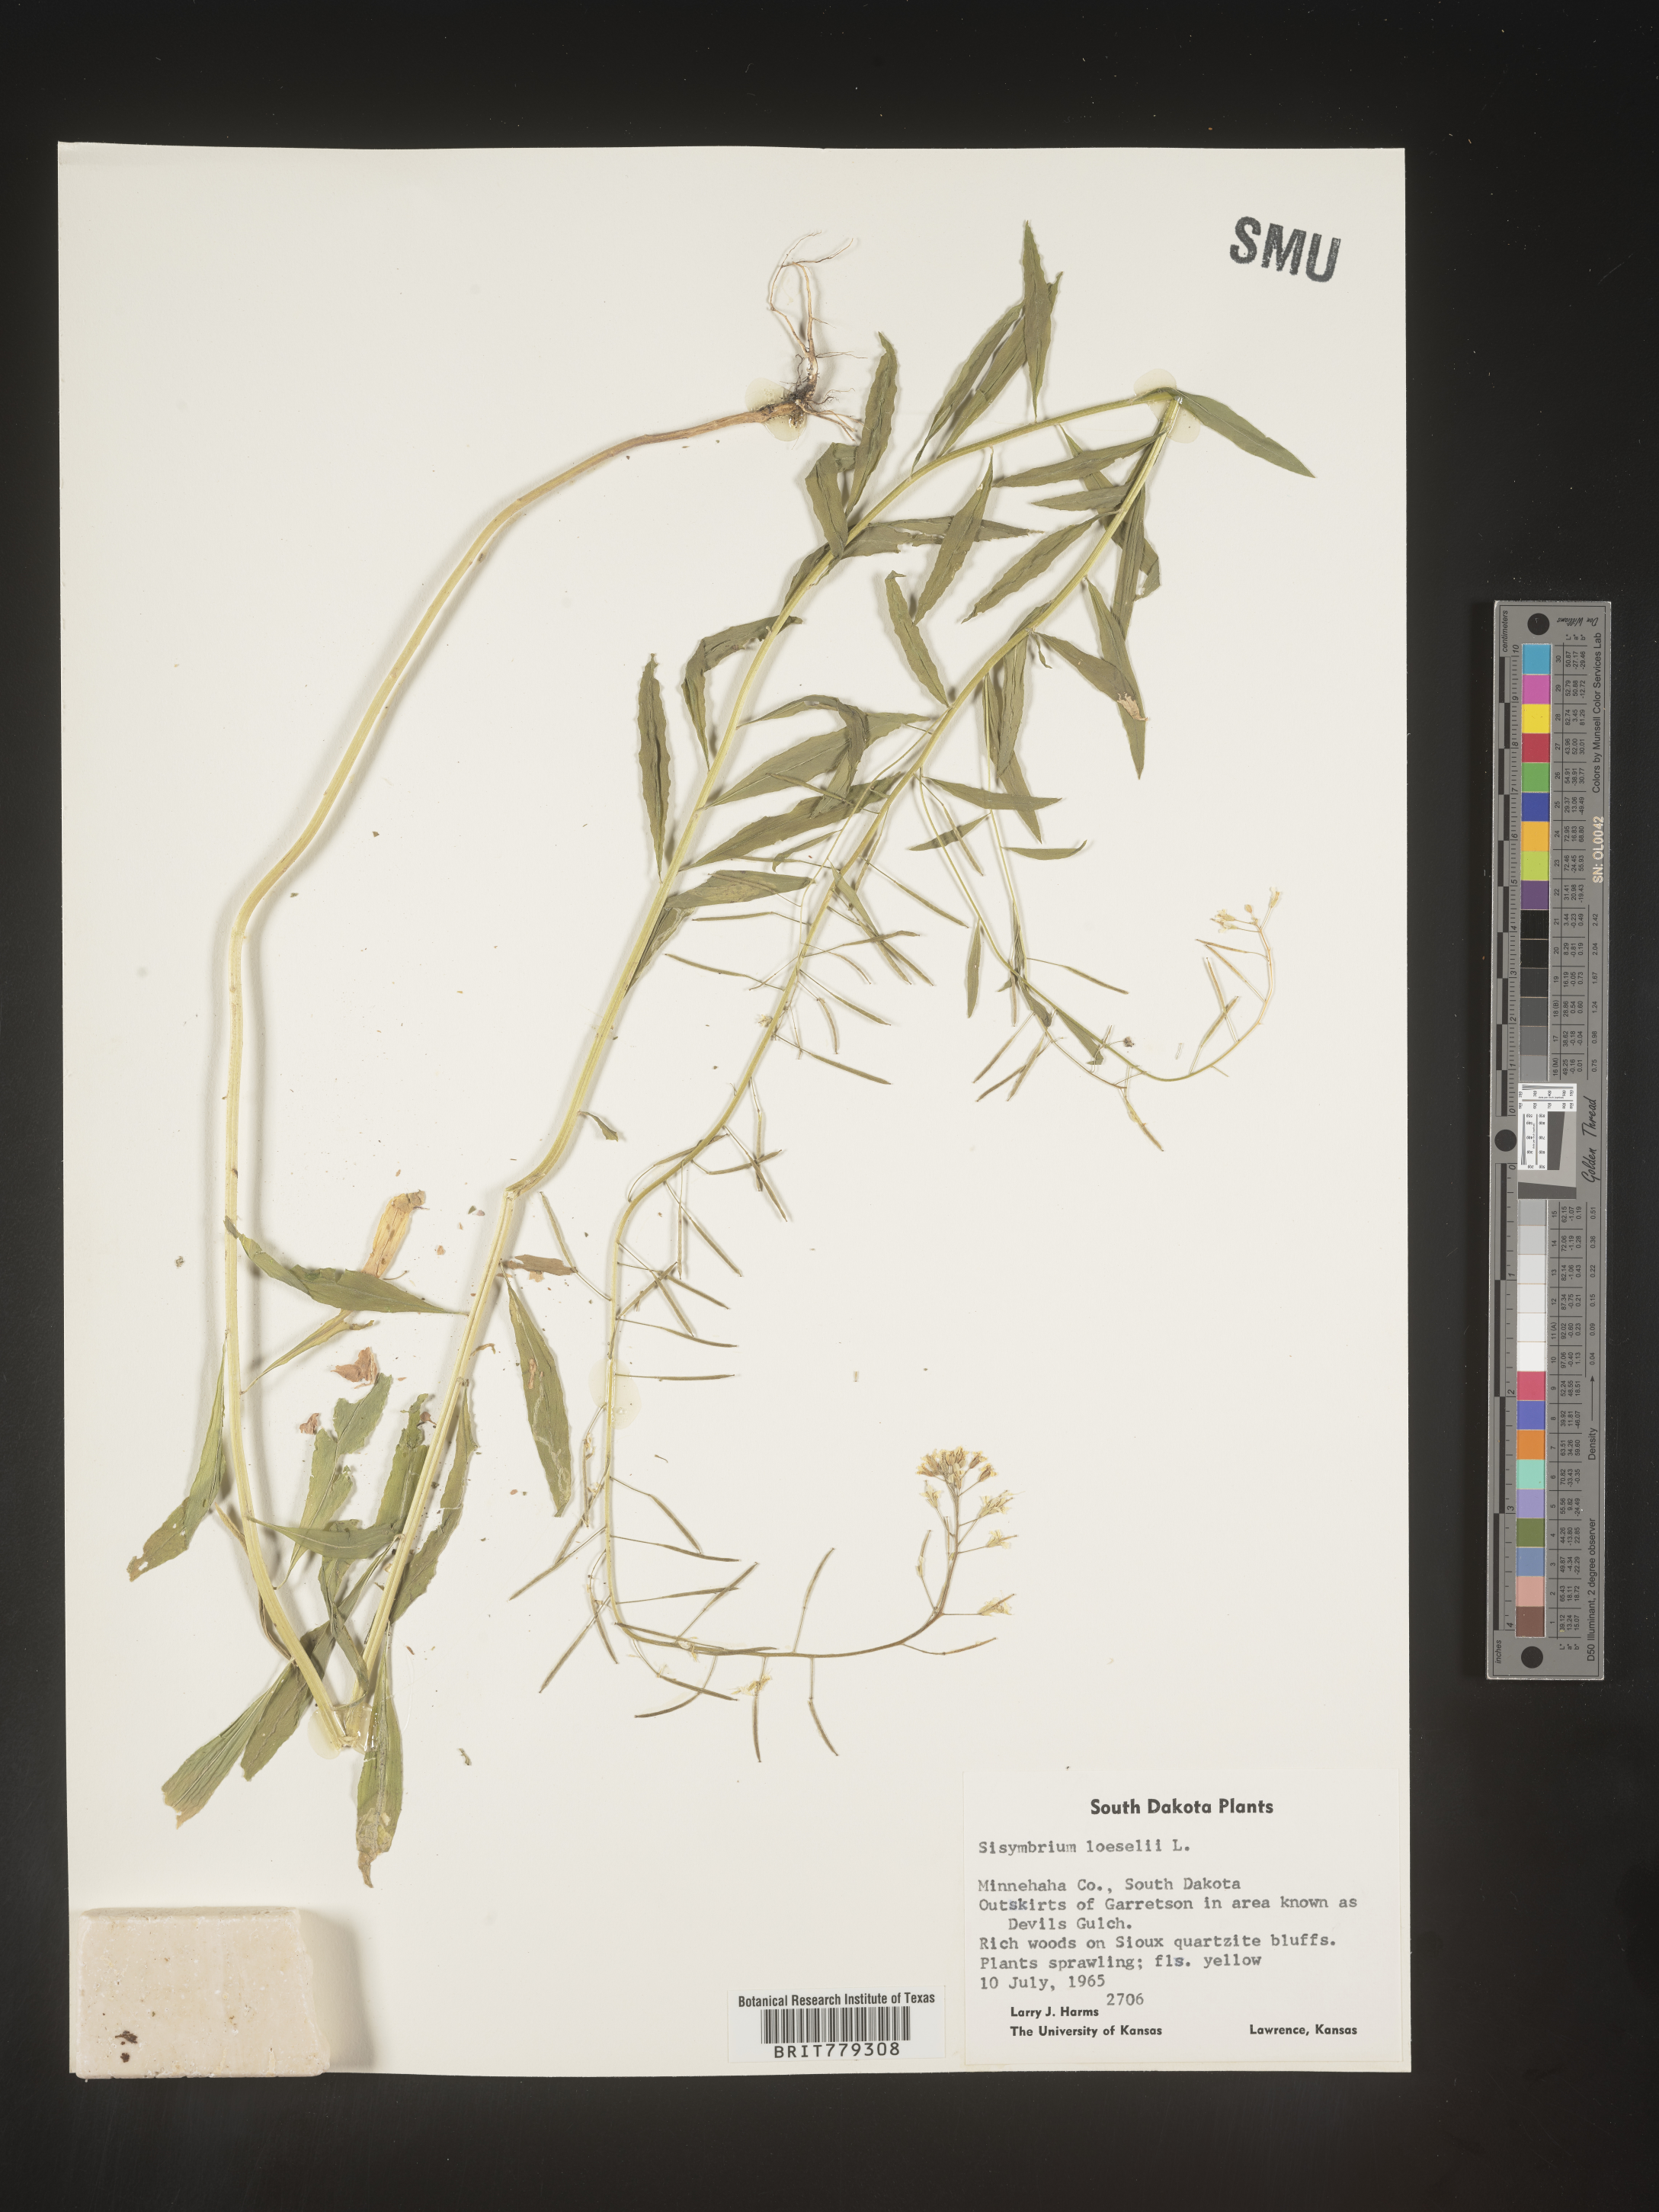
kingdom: Plantae
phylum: Tracheophyta
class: Magnoliopsida
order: Brassicales
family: Brassicaceae
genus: Sisymbrium
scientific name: Sisymbrium
